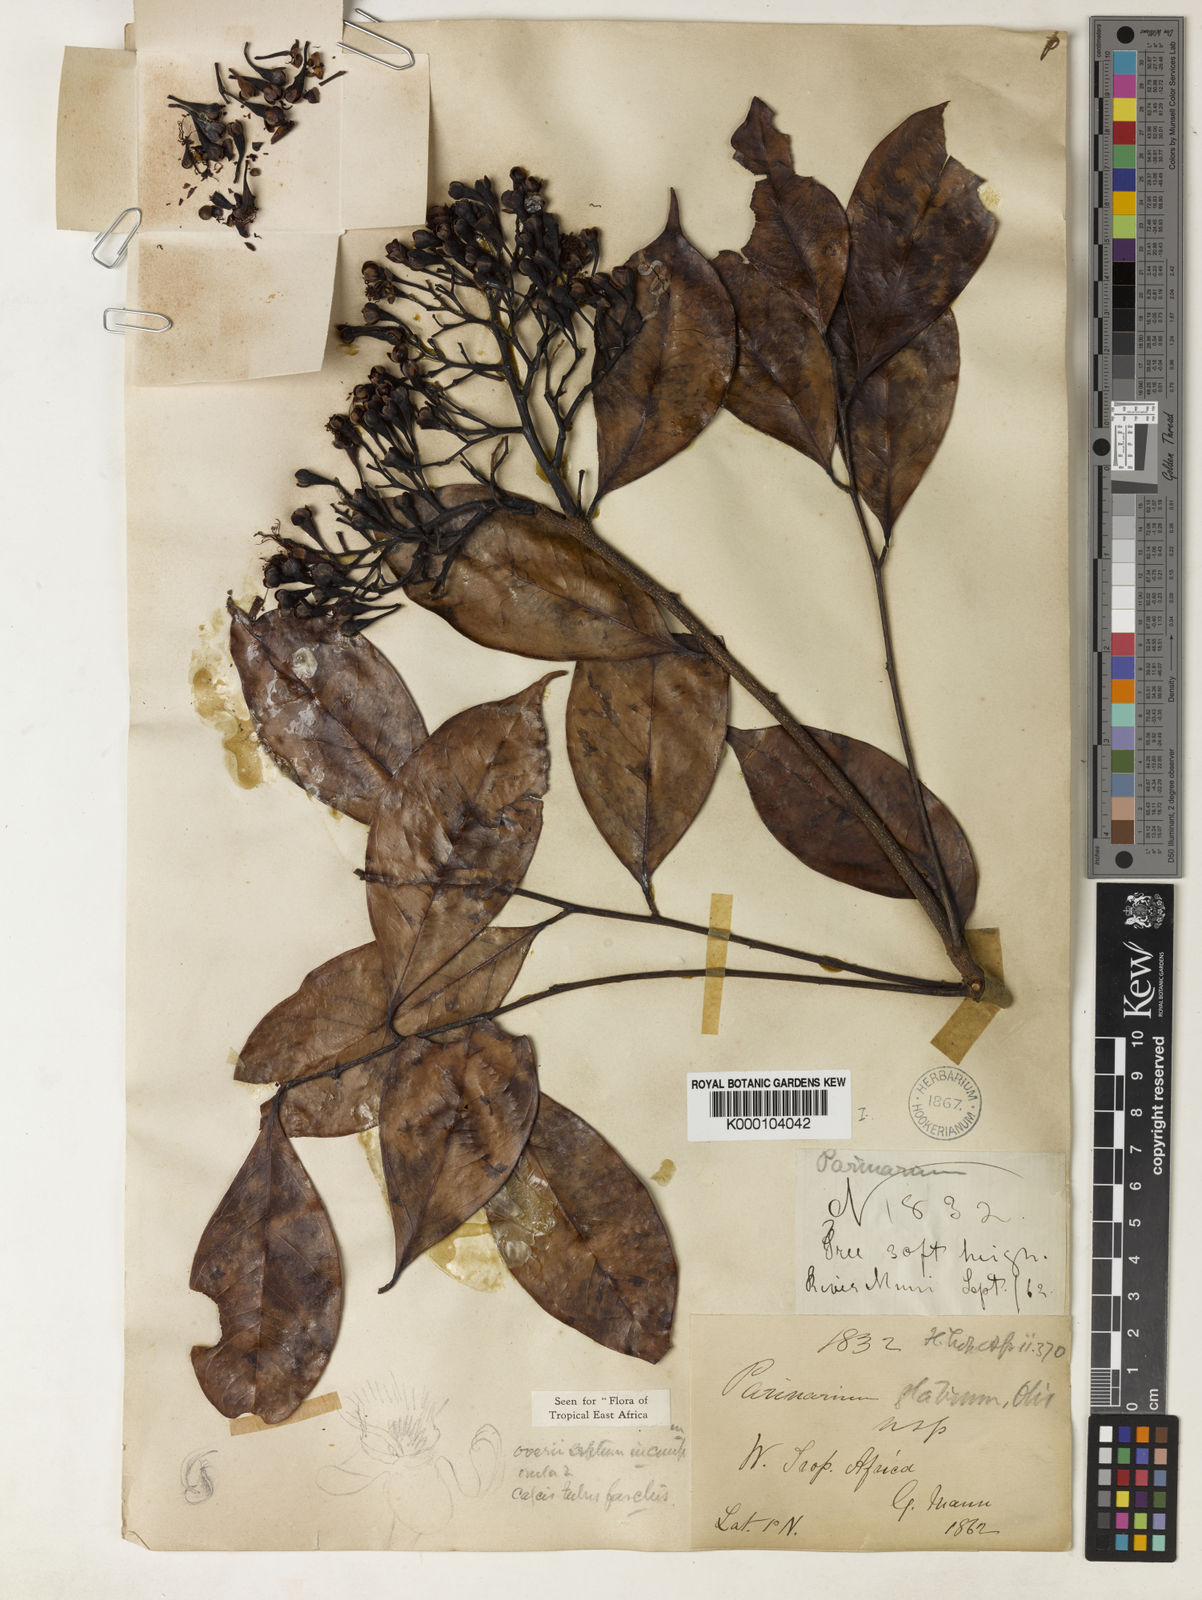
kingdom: Plantae
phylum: Tracheophyta
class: Magnoliopsida
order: Malpighiales
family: Chrysobalanaceae
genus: Maranthes
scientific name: Maranthes glabra
